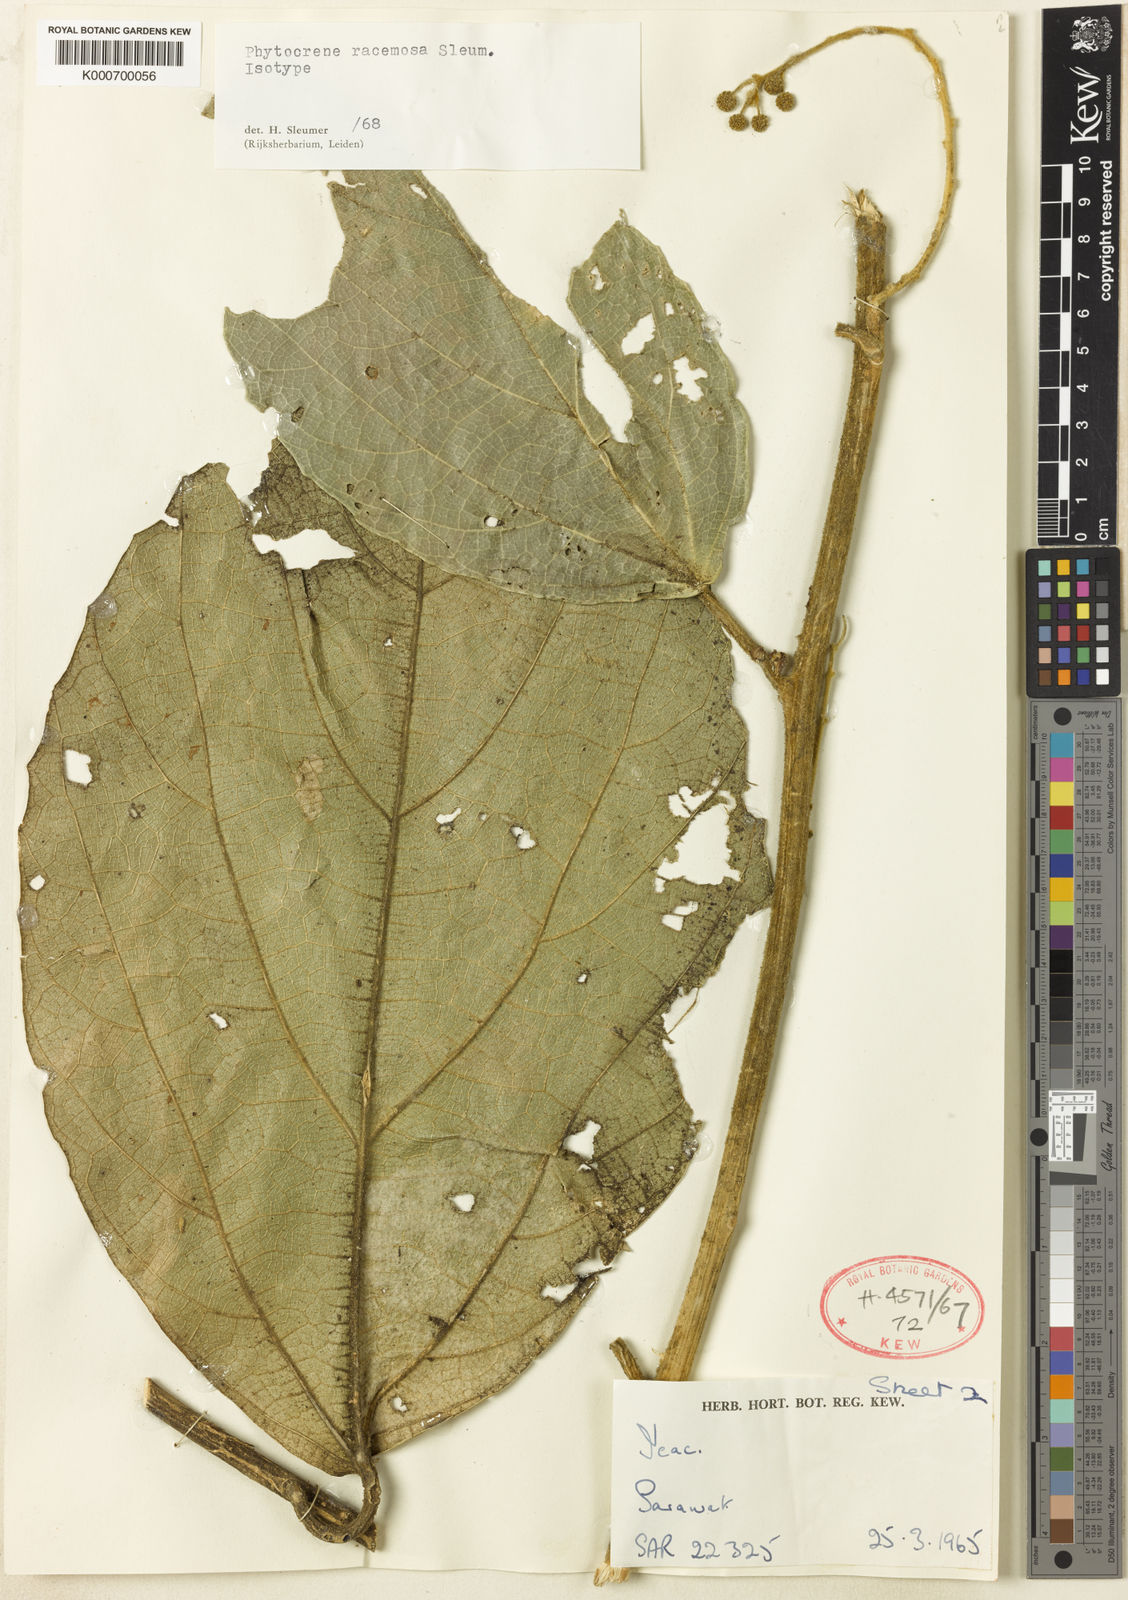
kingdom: Plantae
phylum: Tracheophyta
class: Magnoliopsida
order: Icacinales
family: Icacinaceae
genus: Phytocrene
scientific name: Phytocrene racemosa
